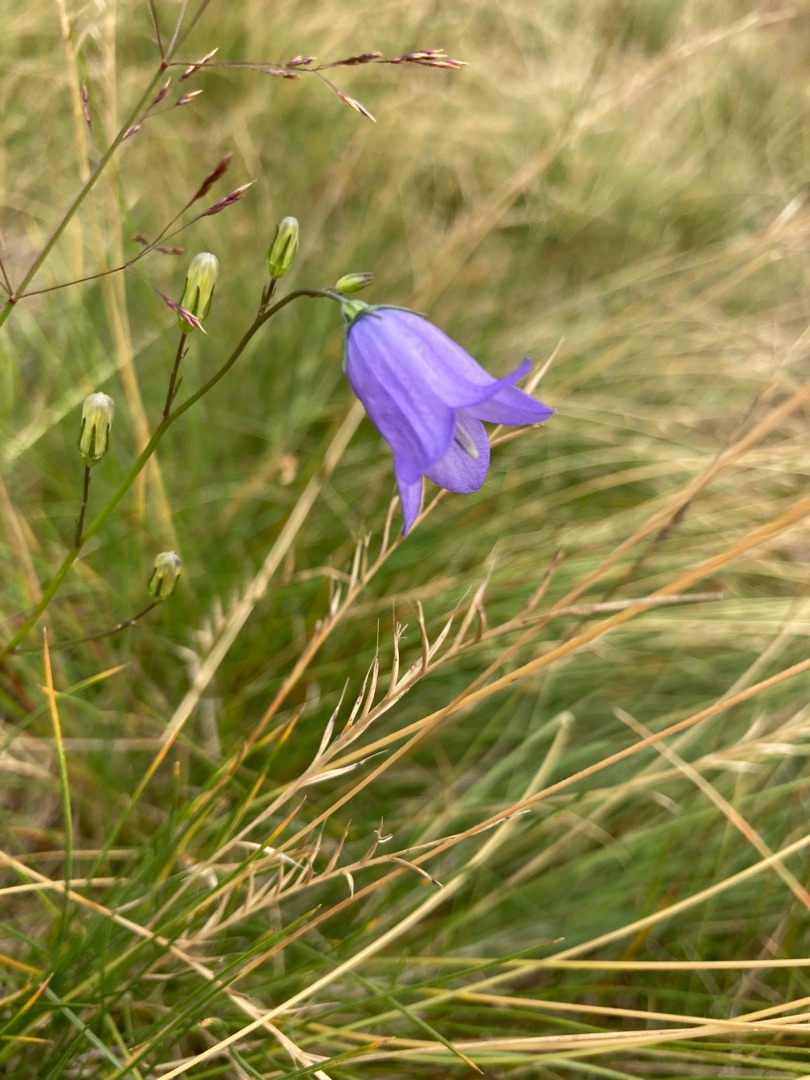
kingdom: Plantae
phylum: Tracheophyta
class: Magnoliopsida
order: Asterales
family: Campanulaceae
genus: Campanula
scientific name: Campanula rotundifolia
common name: Liden klokke
